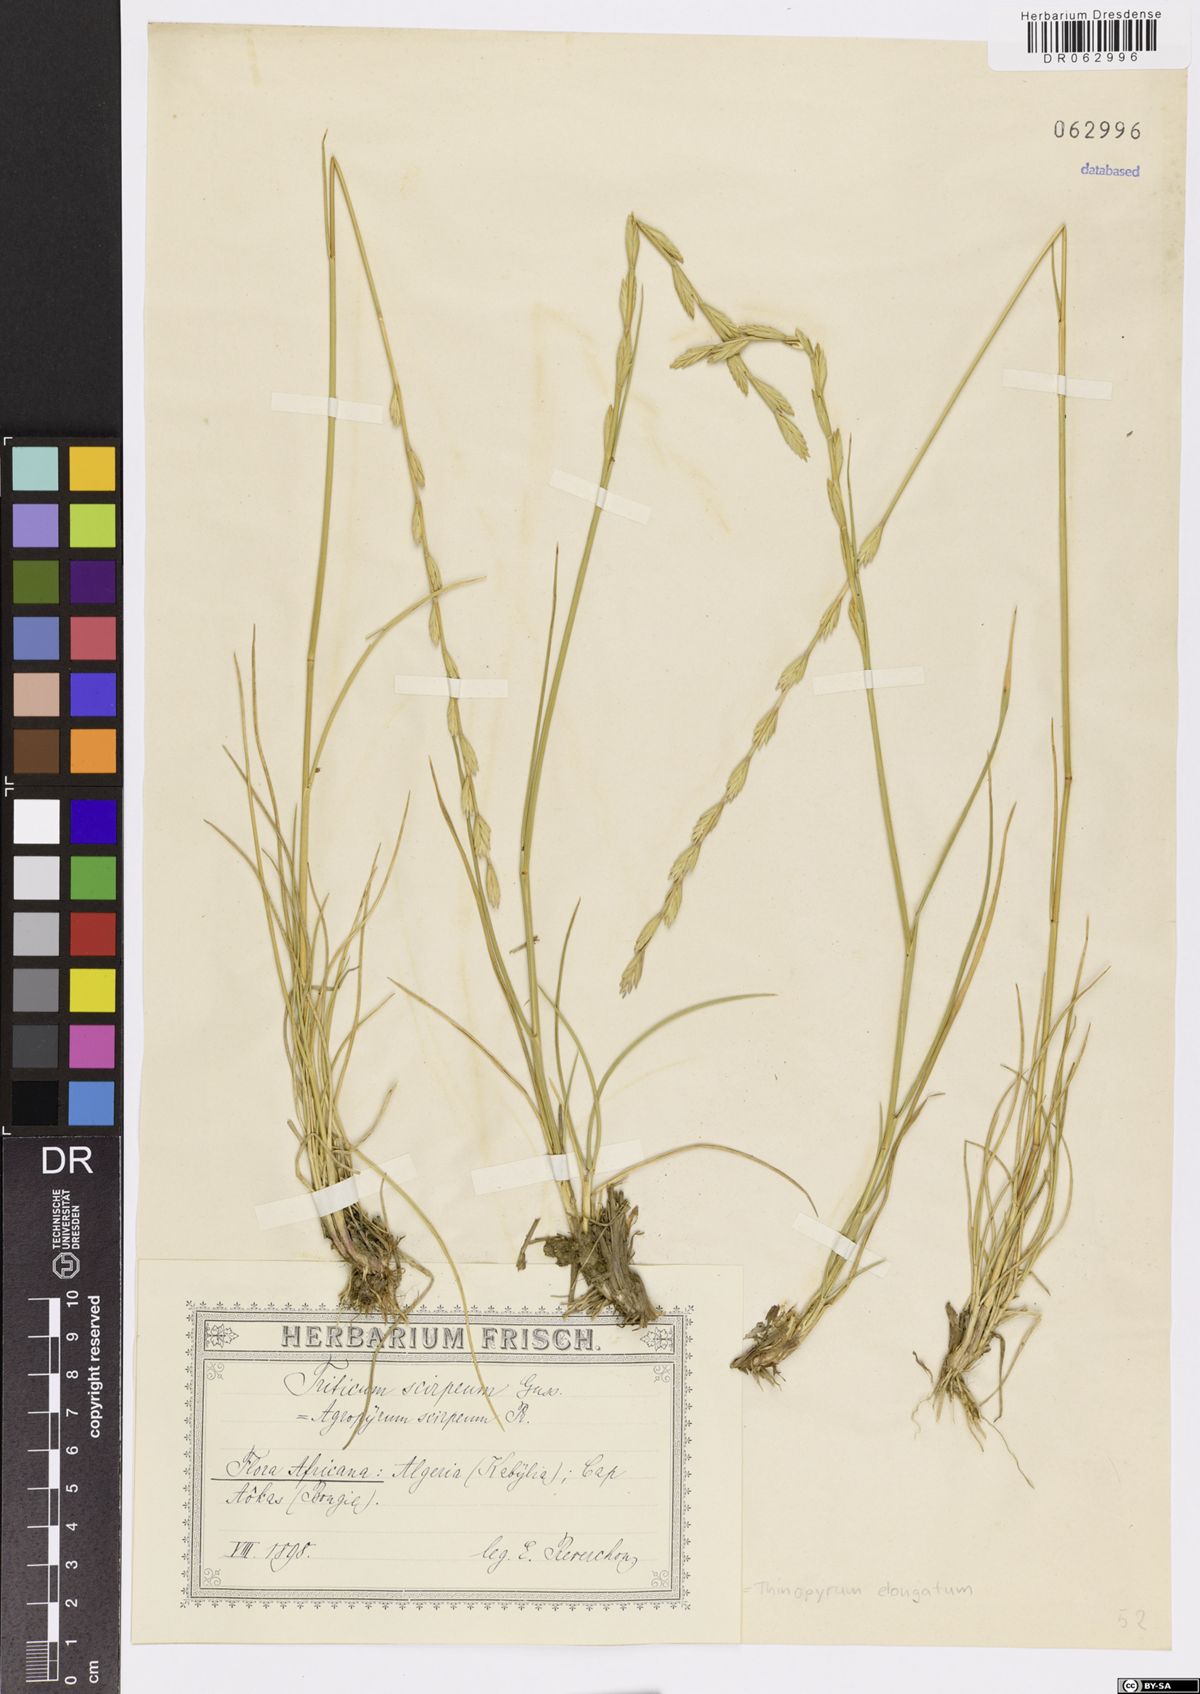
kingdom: Plantae
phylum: Tracheophyta
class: Liliopsida
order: Poales
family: Poaceae
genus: Thinopyrum
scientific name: Thinopyrum elongatum
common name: Tall wheatgrass
